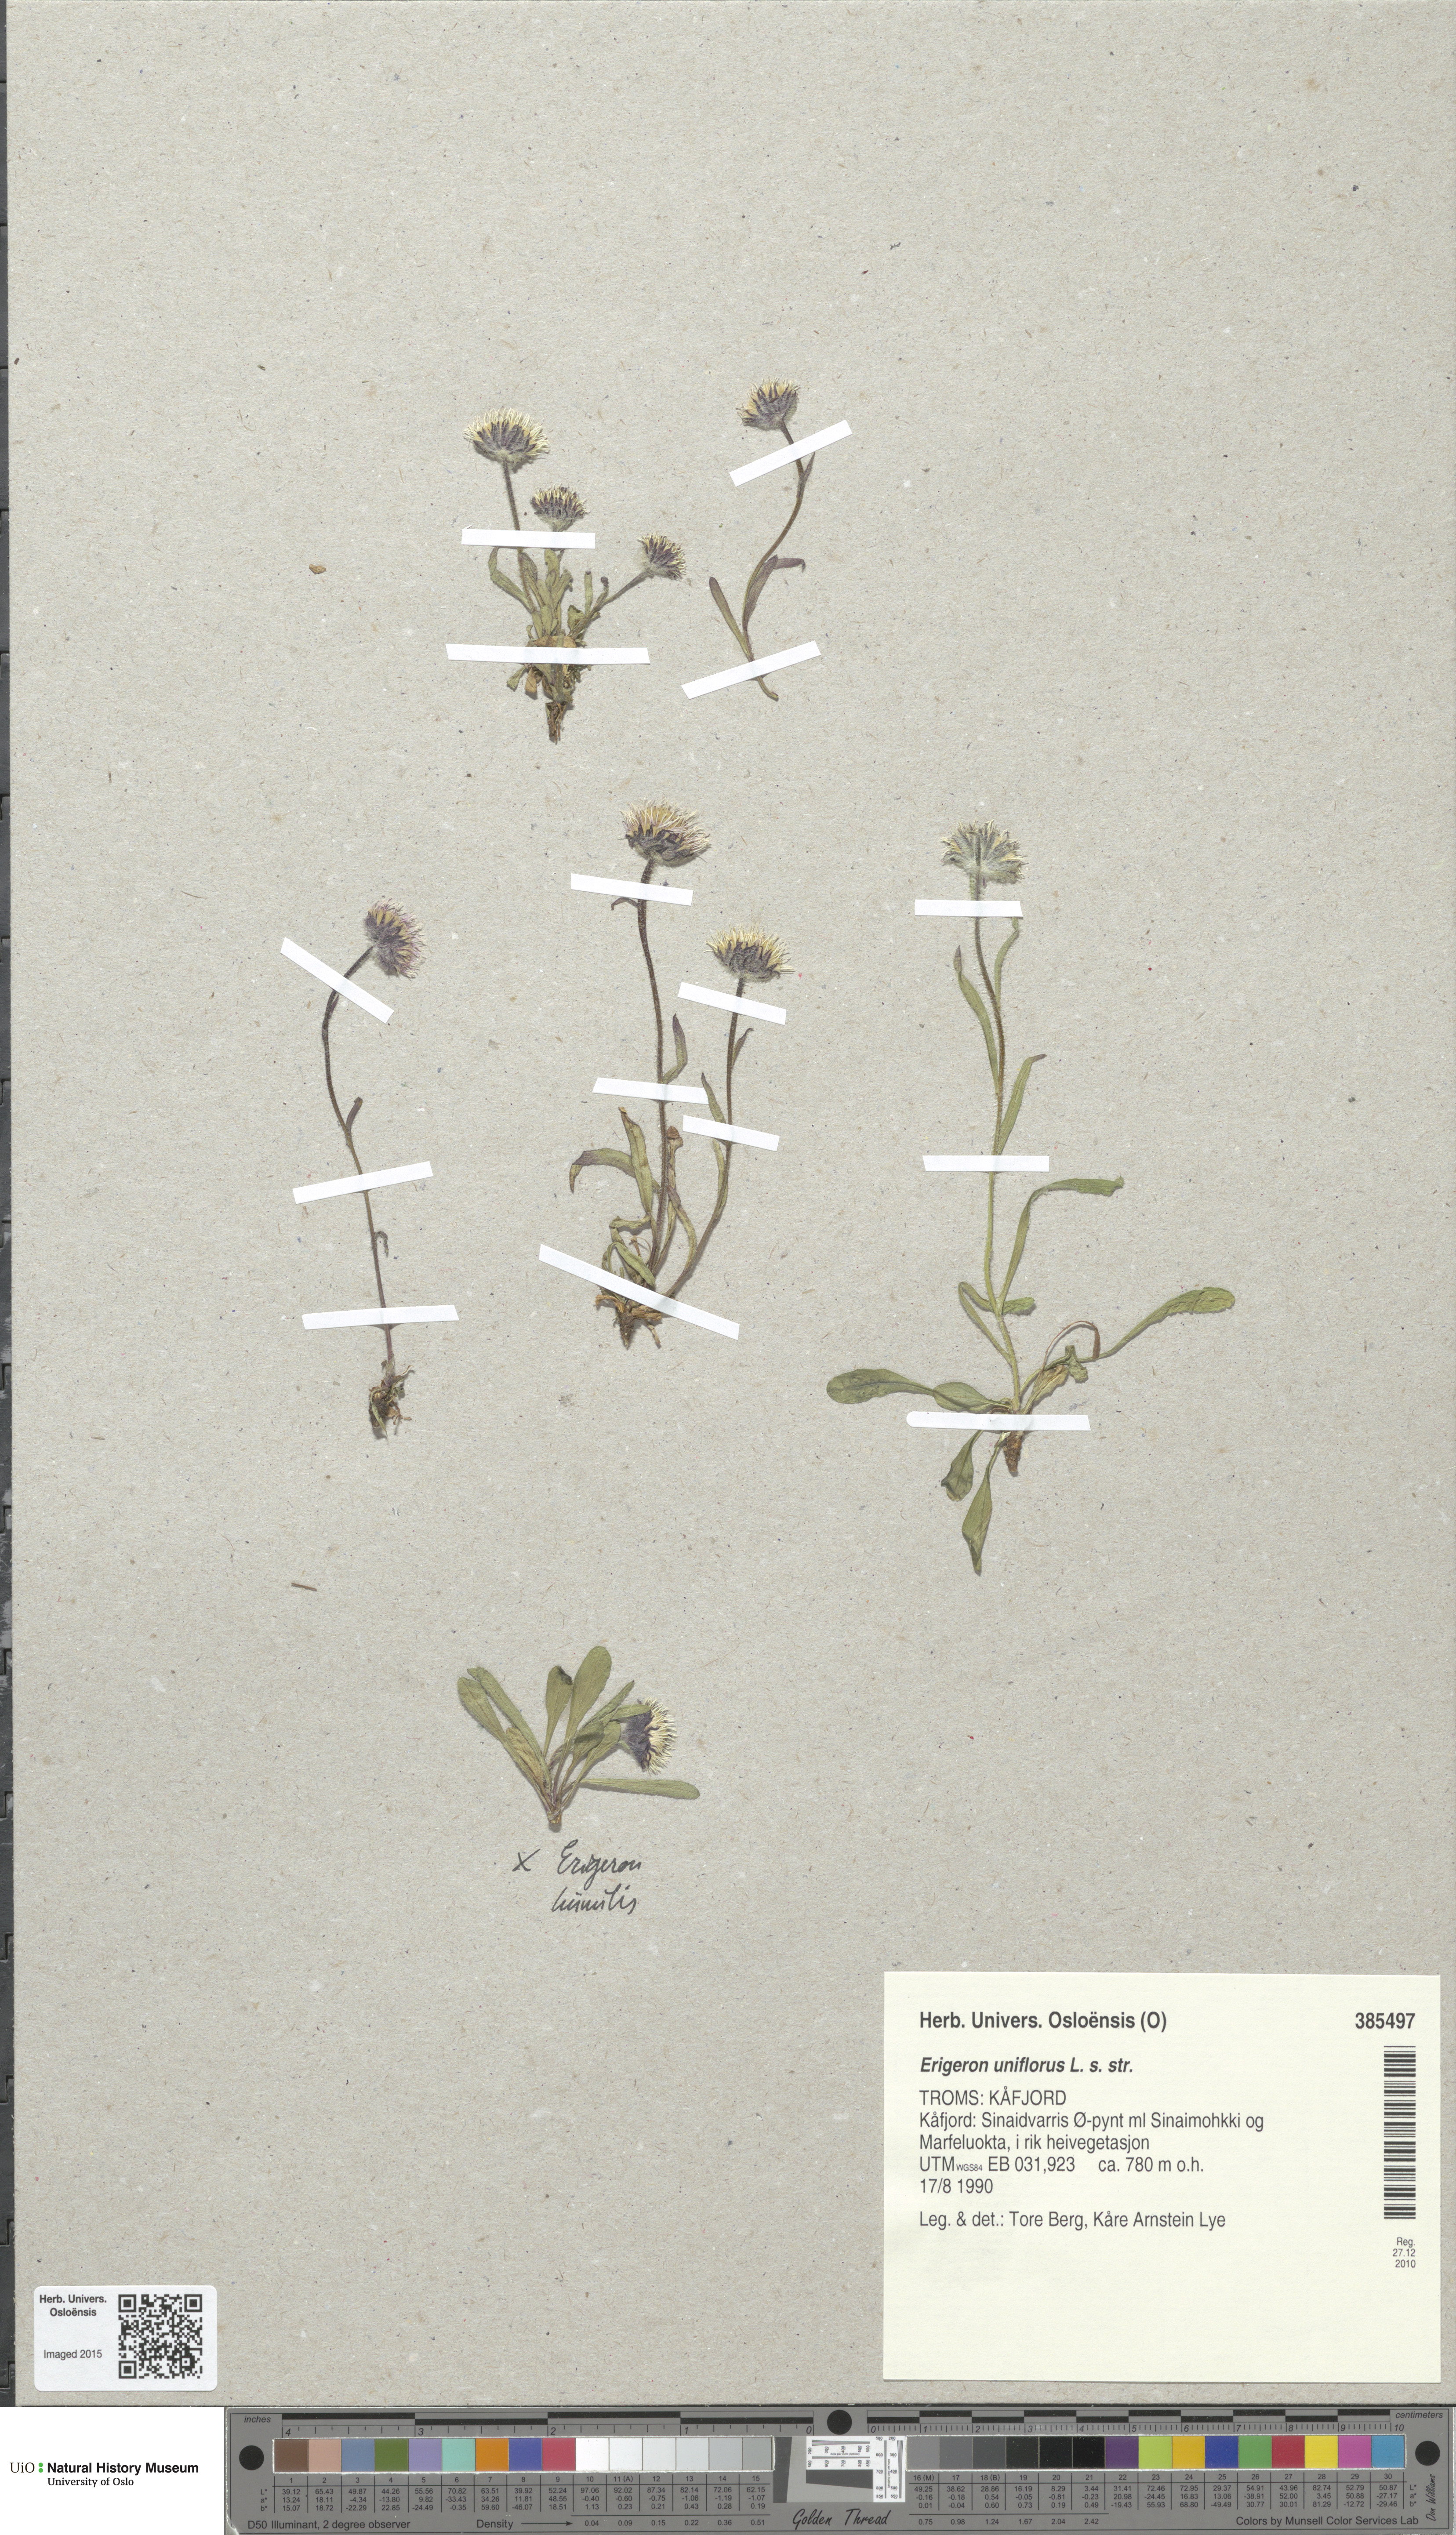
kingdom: Plantae
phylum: Tracheophyta
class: Magnoliopsida
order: Asterales
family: Asteraceae
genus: Erigeron
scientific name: Erigeron uniflorus
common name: Northern daisy
